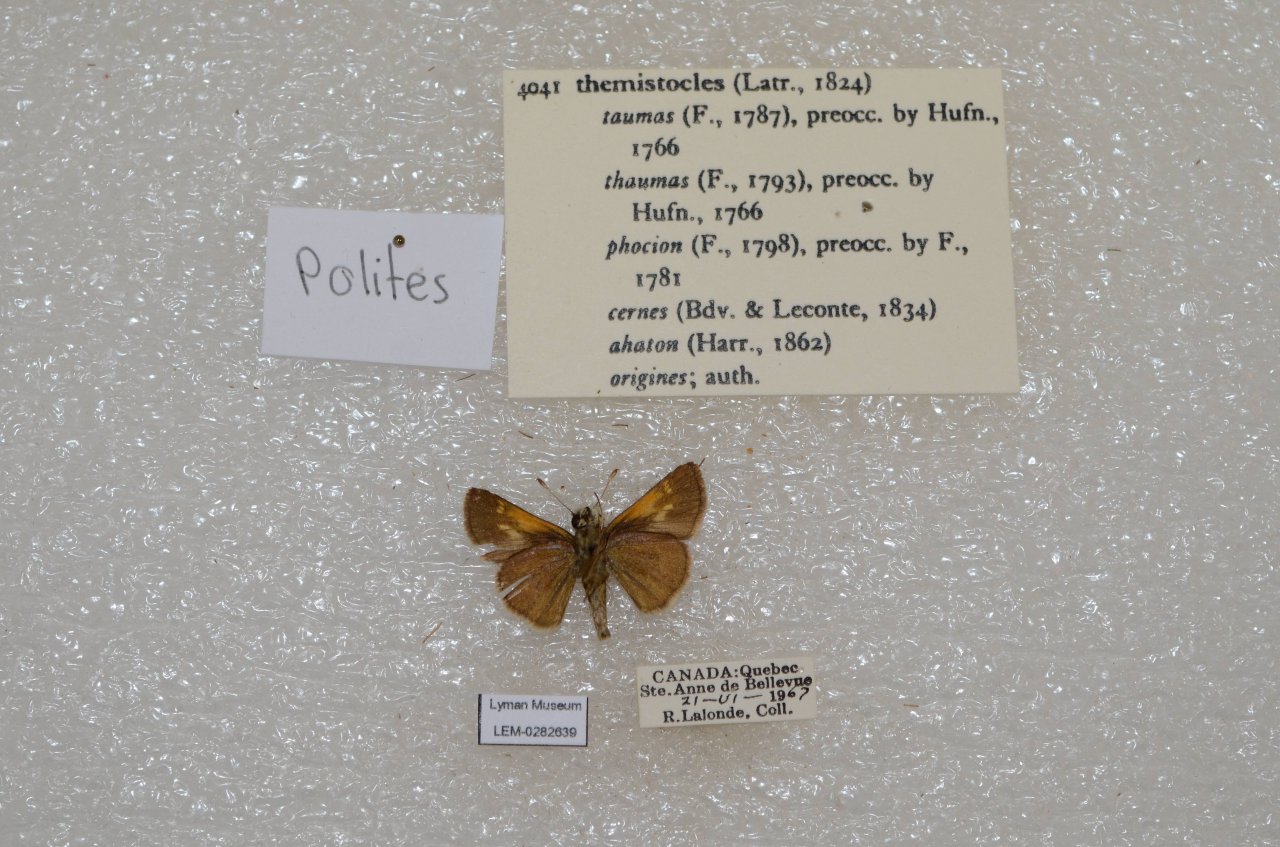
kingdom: Animalia
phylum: Arthropoda
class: Insecta
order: Lepidoptera
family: Hesperiidae
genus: Polites
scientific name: Polites themistocles
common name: Tawny-edged Skipper
